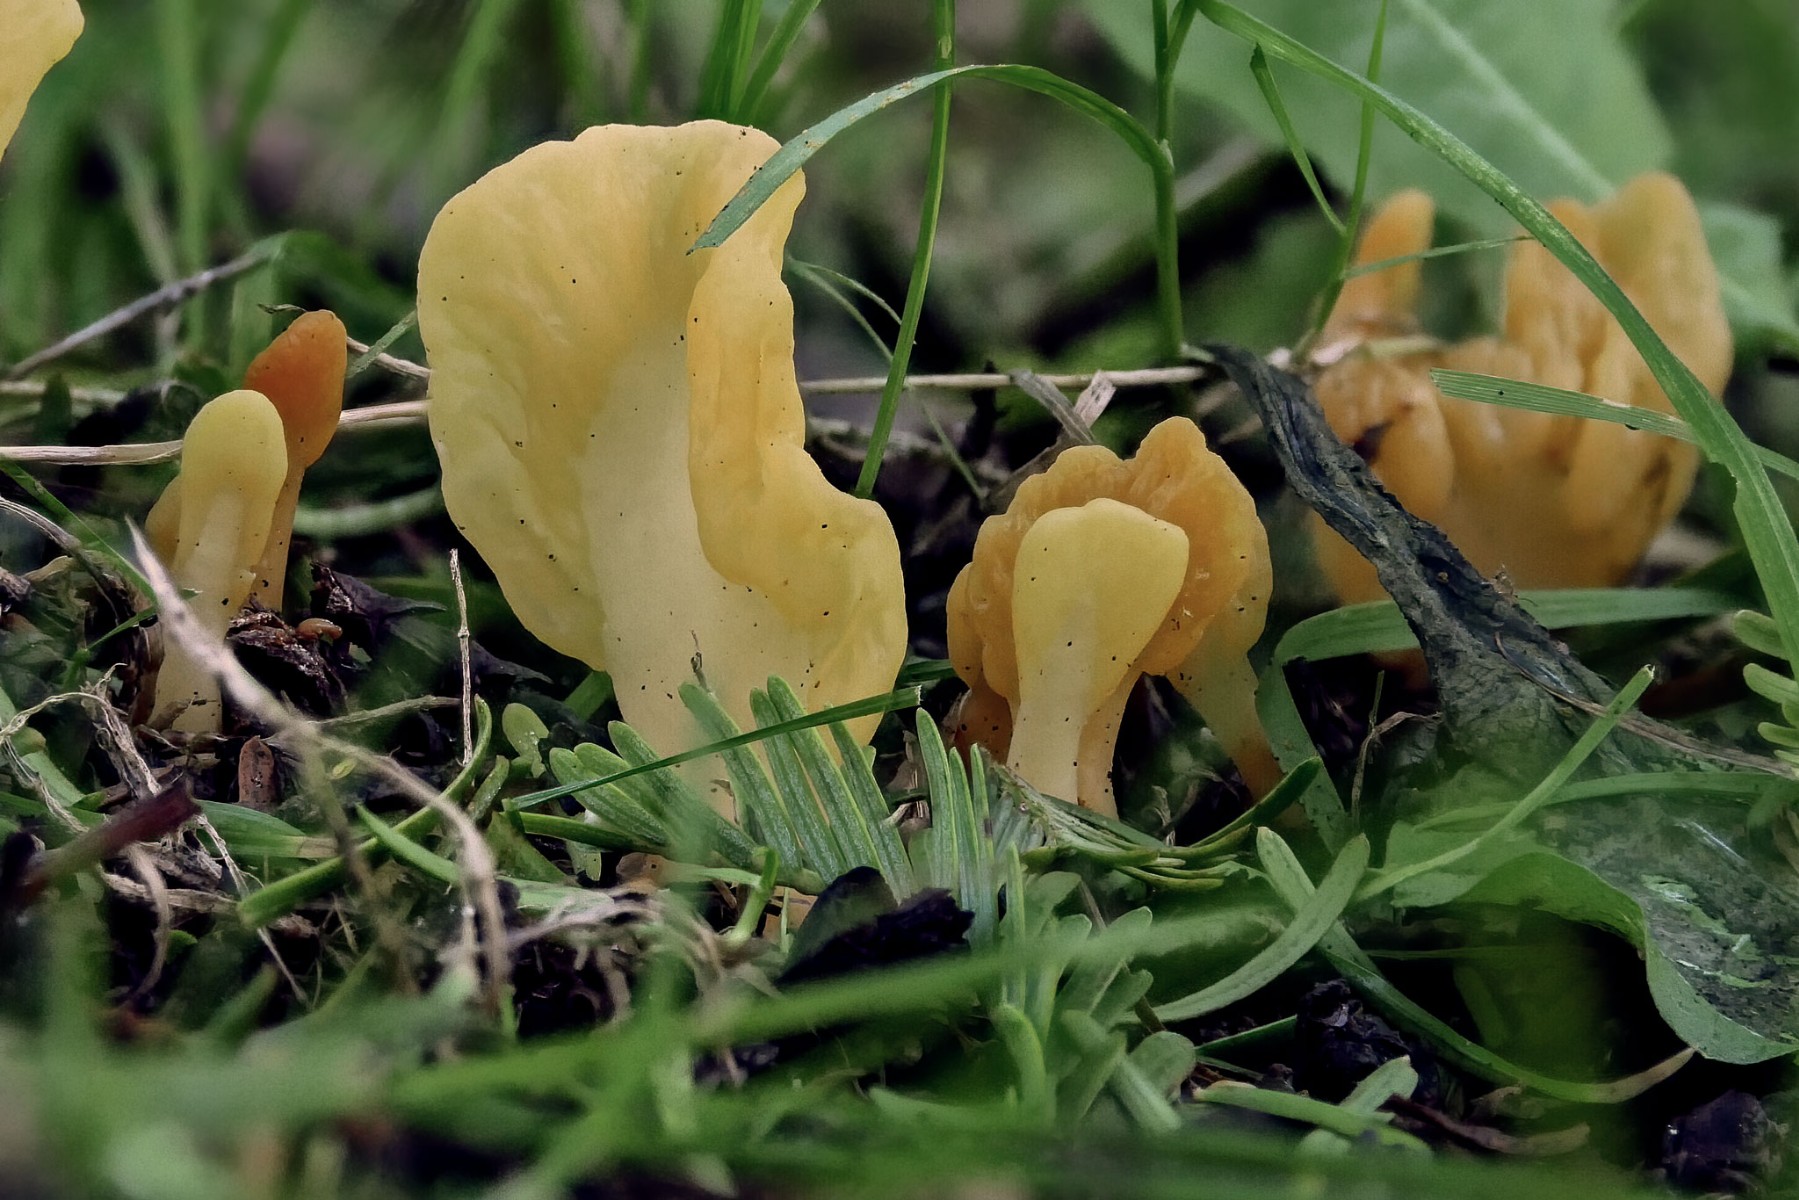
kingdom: Fungi
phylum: Ascomycota
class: Leotiomycetes
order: Rhytismatales
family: Cudoniaceae
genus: Spathularia
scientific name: Spathularia flavida
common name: gul spatelsvamp
